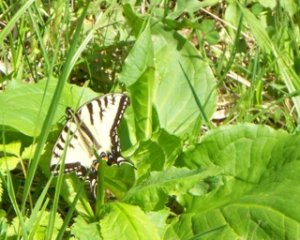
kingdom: Animalia
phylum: Arthropoda
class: Insecta
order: Lepidoptera
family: Papilionidae
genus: Pterourus
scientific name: Pterourus canadensis
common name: Canadian Tiger Swallowtail
